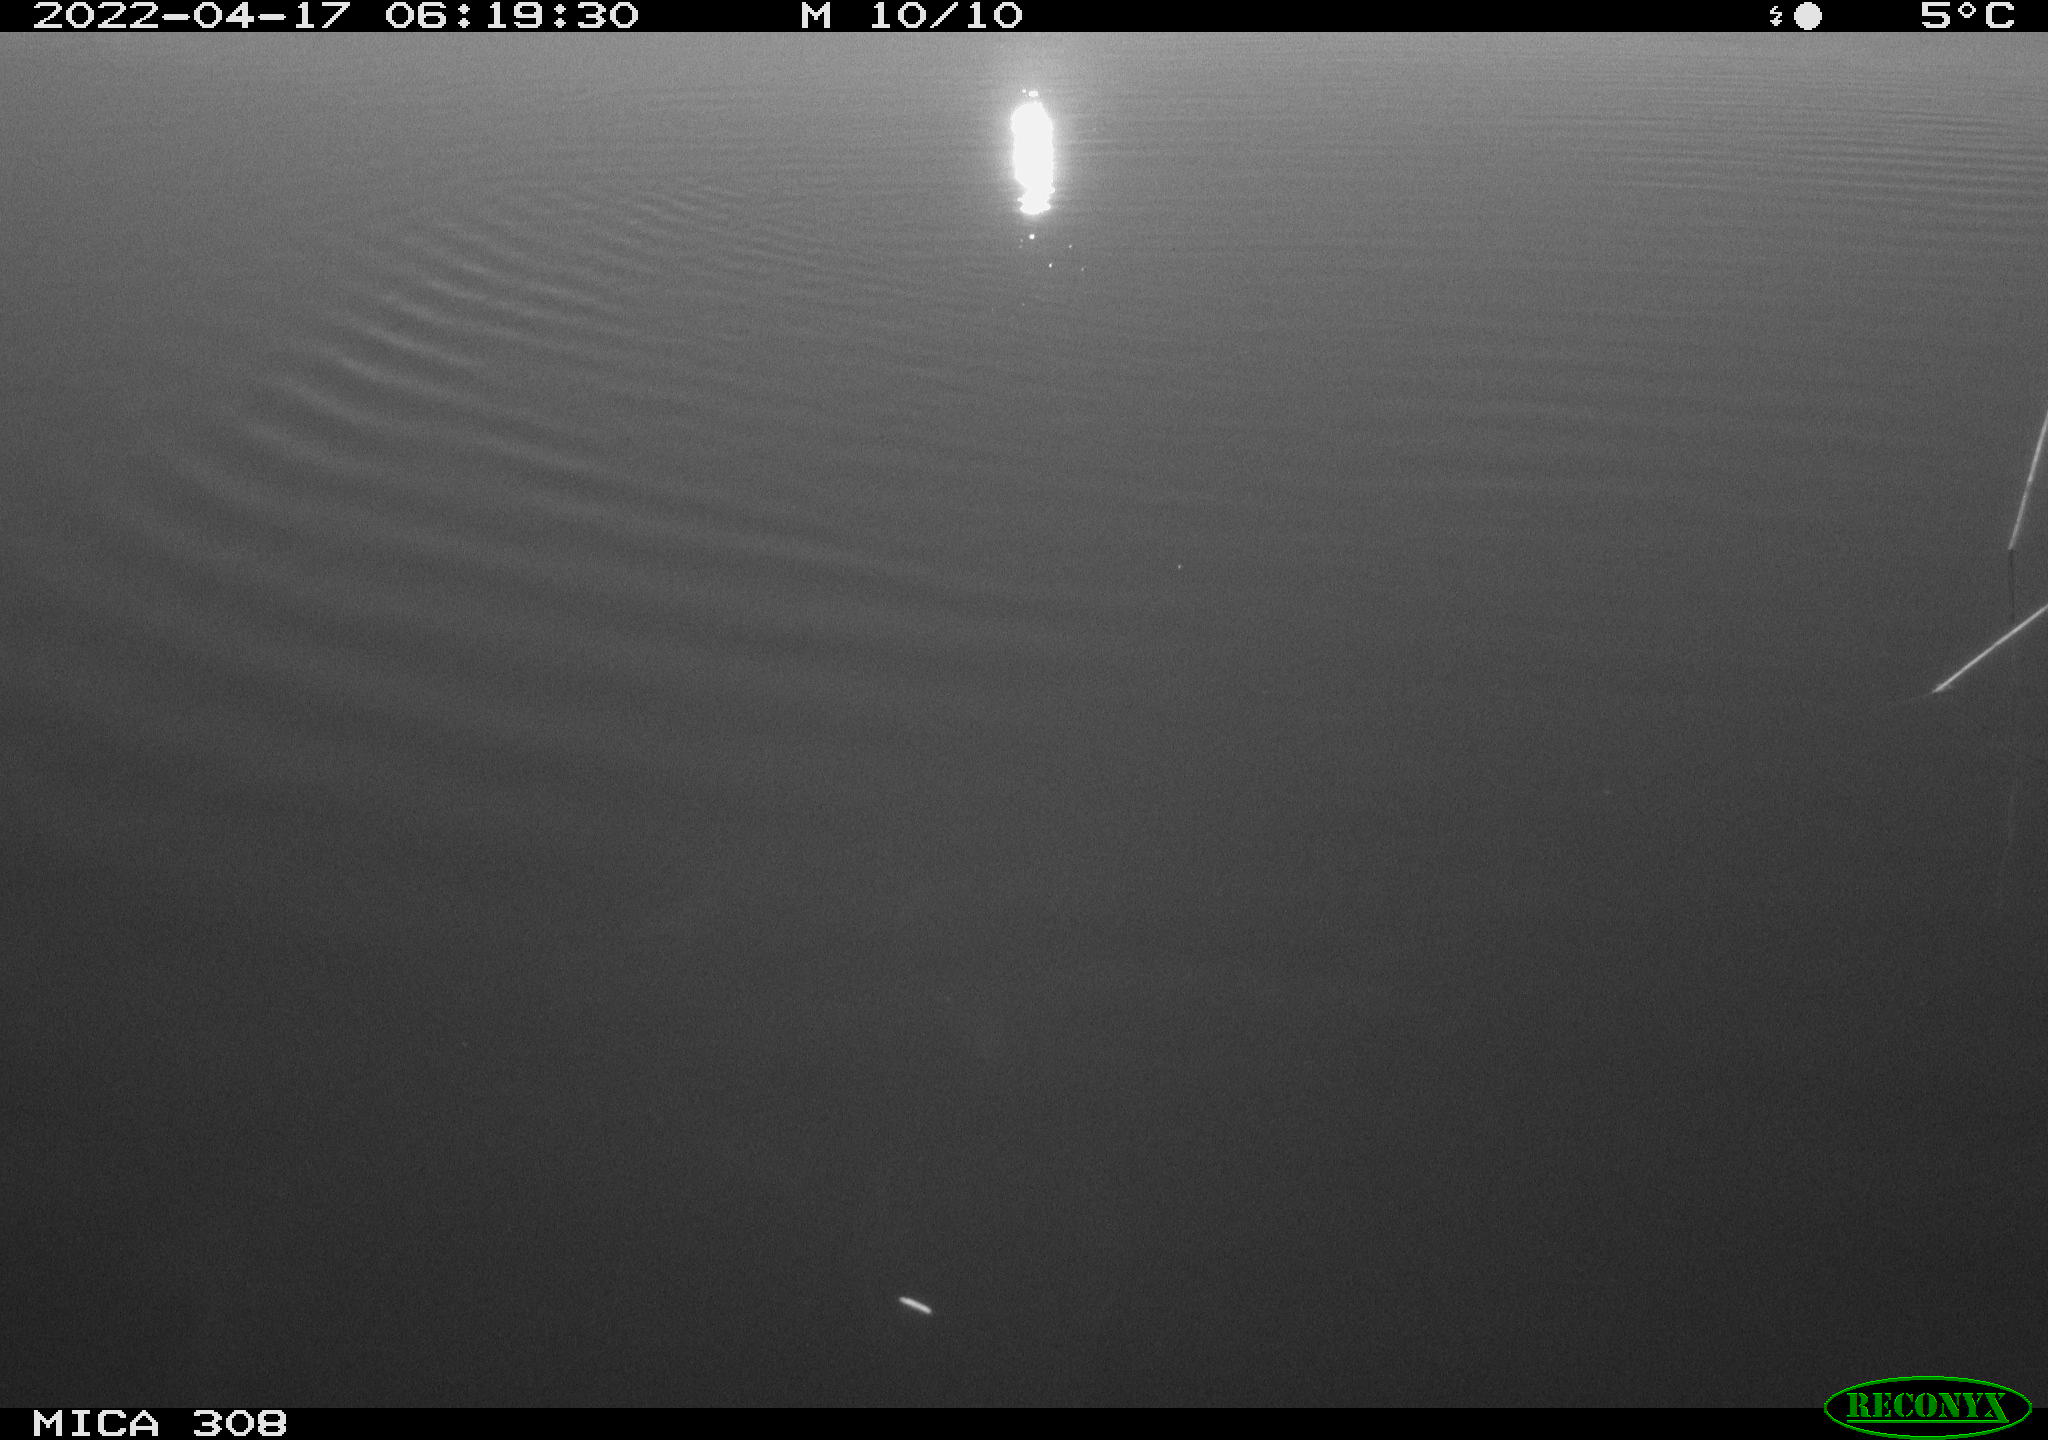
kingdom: Animalia
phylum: Chordata
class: Aves
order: Anseriformes
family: Anatidae
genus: Anas
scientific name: Anas platyrhynchos
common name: Mallard
